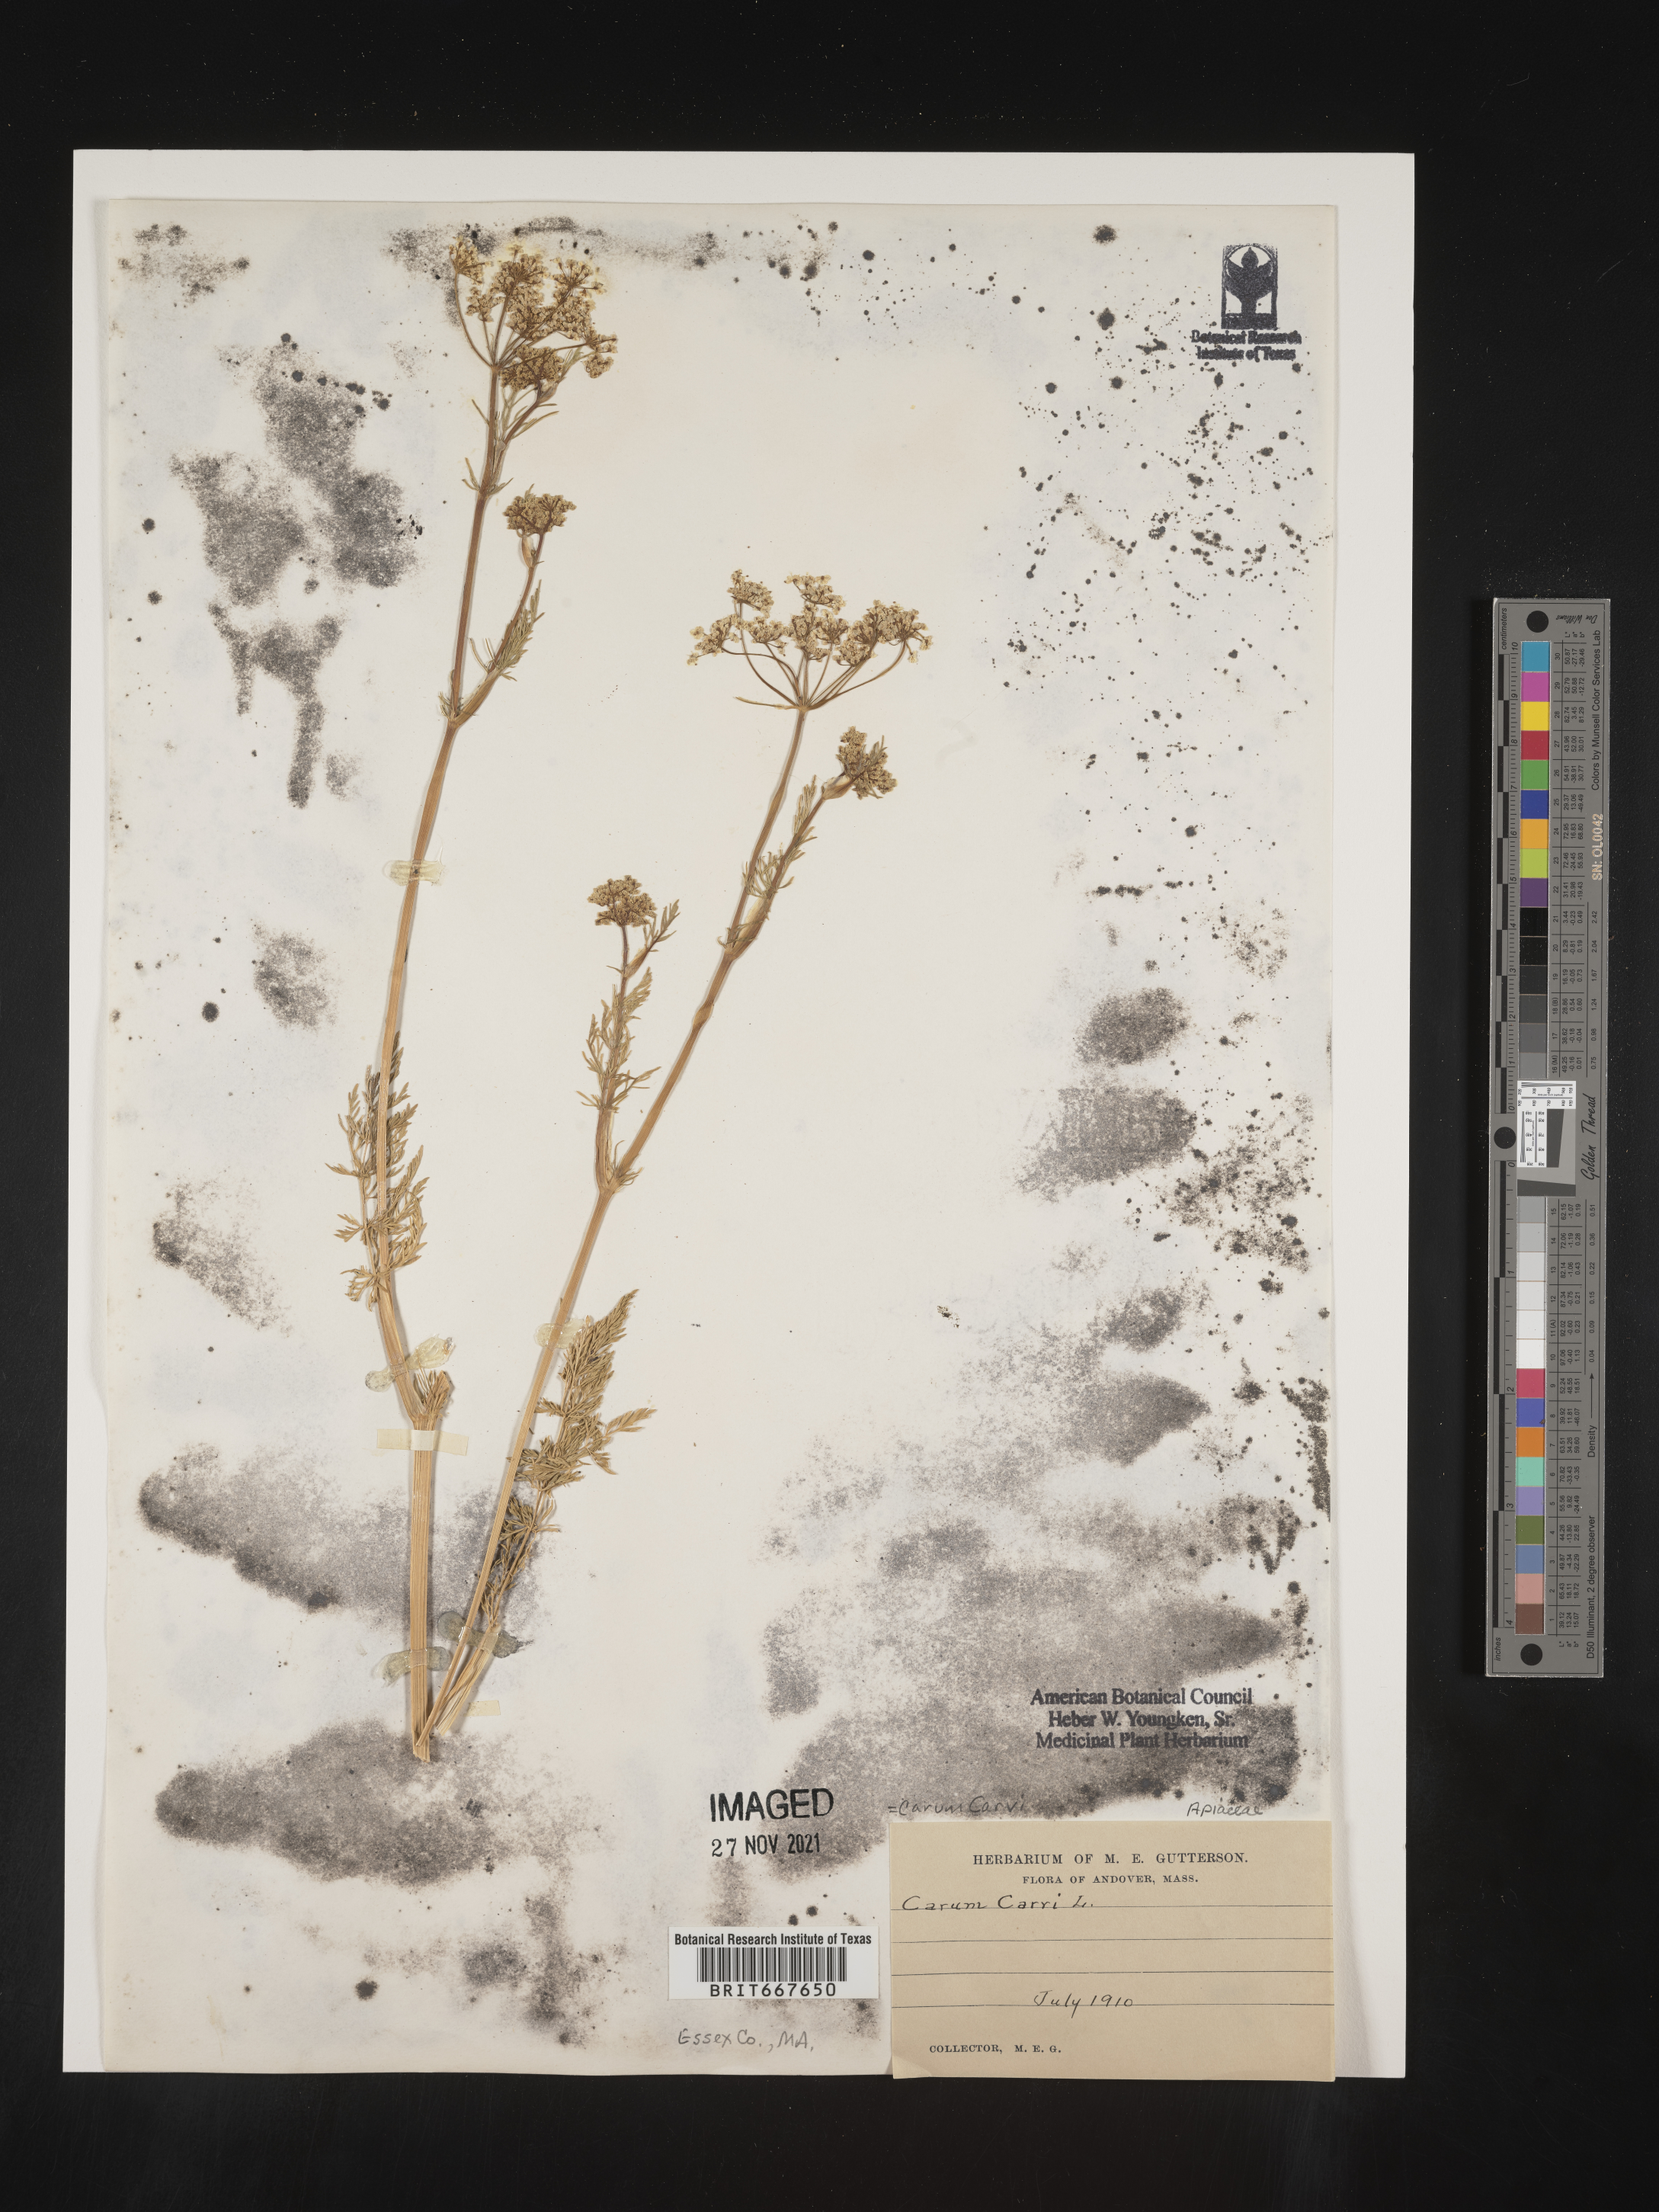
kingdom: Plantae
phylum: Tracheophyta
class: Magnoliopsida
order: Apiales
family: Apiaceae
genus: Carum
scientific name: Carum
